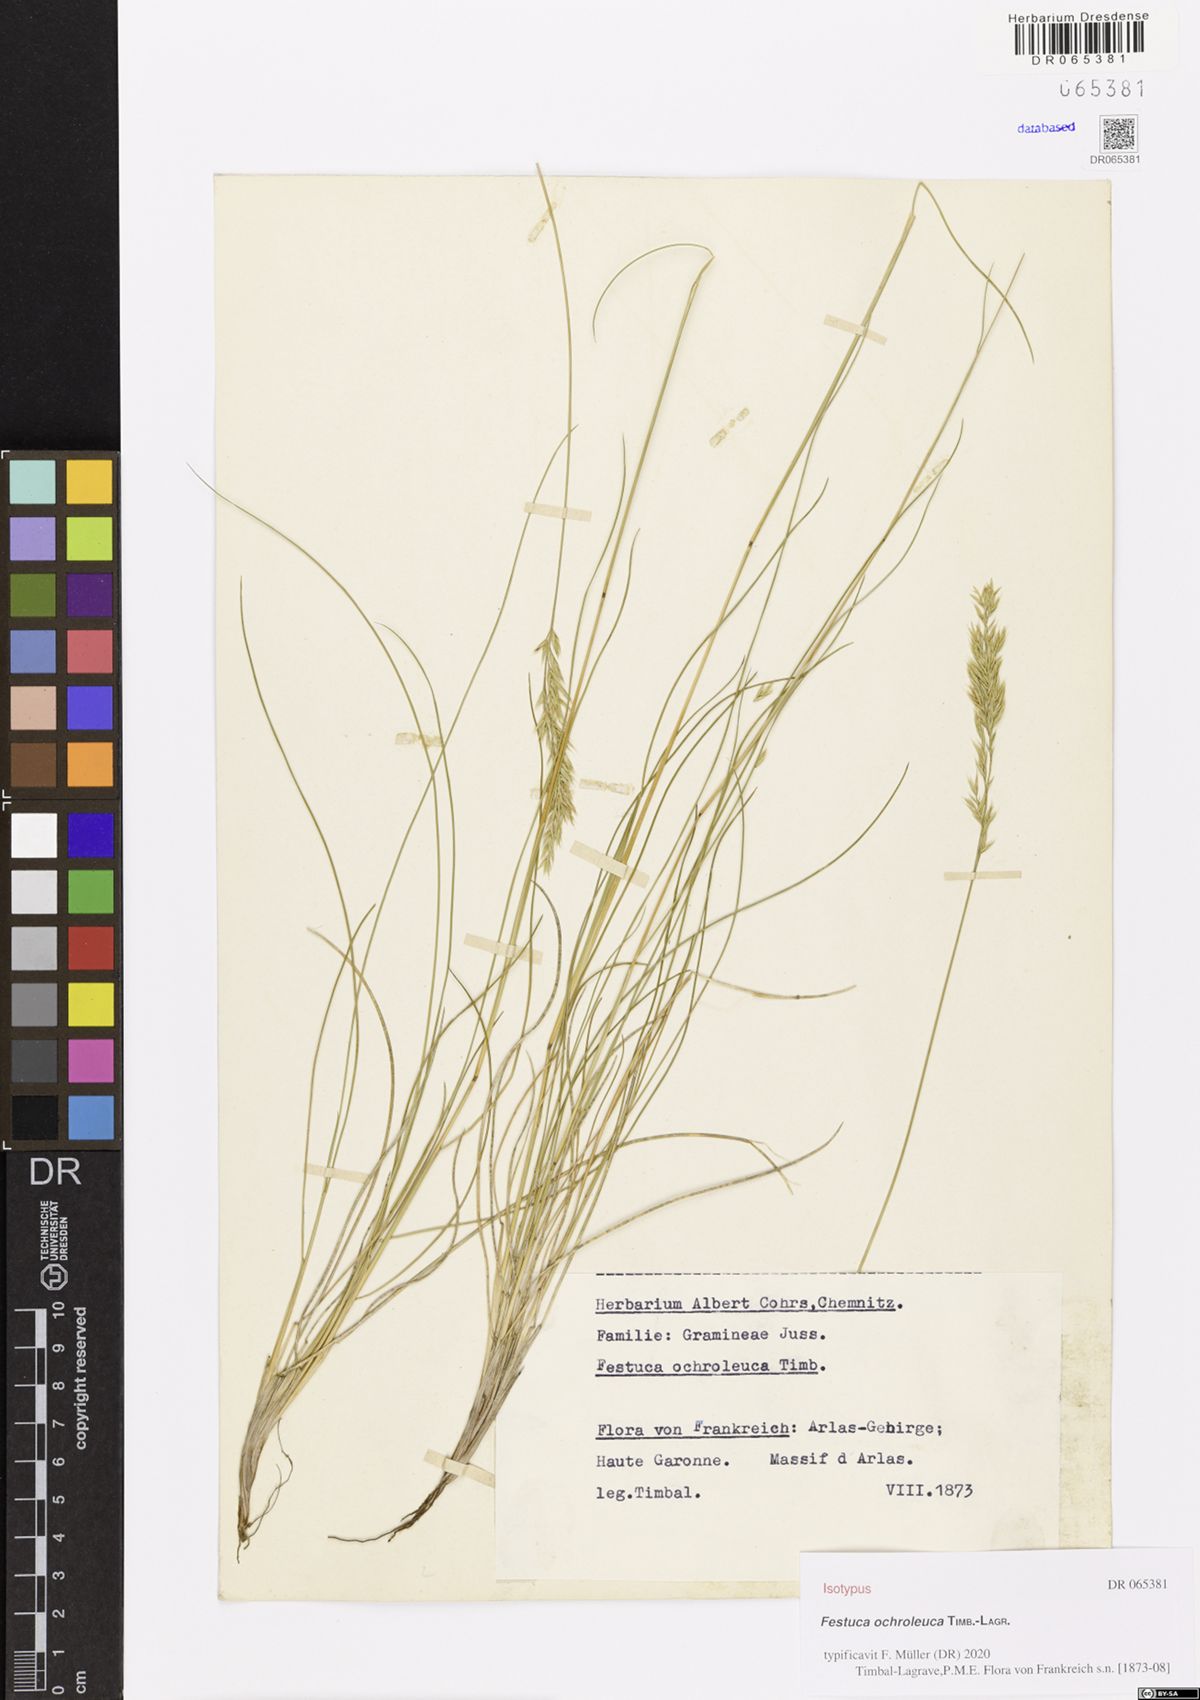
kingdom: Plantae
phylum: Tracheophyta
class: Liliopsida
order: Poales
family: Poaceae
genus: Festuca
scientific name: Festuca ochroleuca
